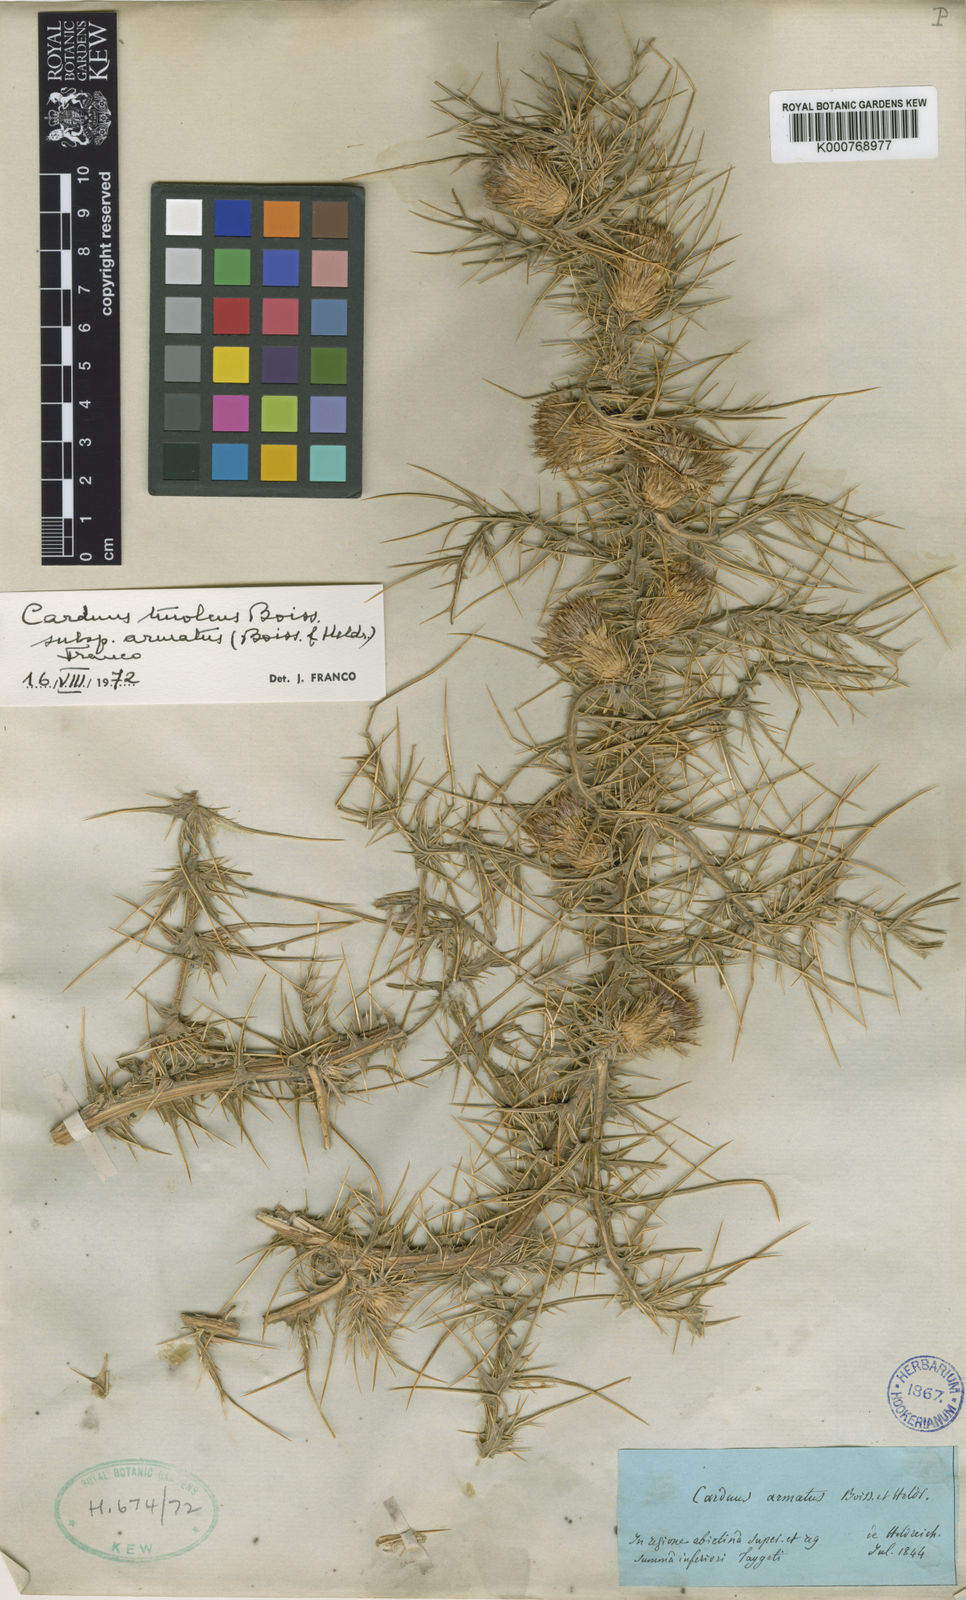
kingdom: Plantae
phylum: Tracheophyta
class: Magnoliopsida
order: Asterales
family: Asteraceae
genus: Carduus
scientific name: Carduus tmoleus
